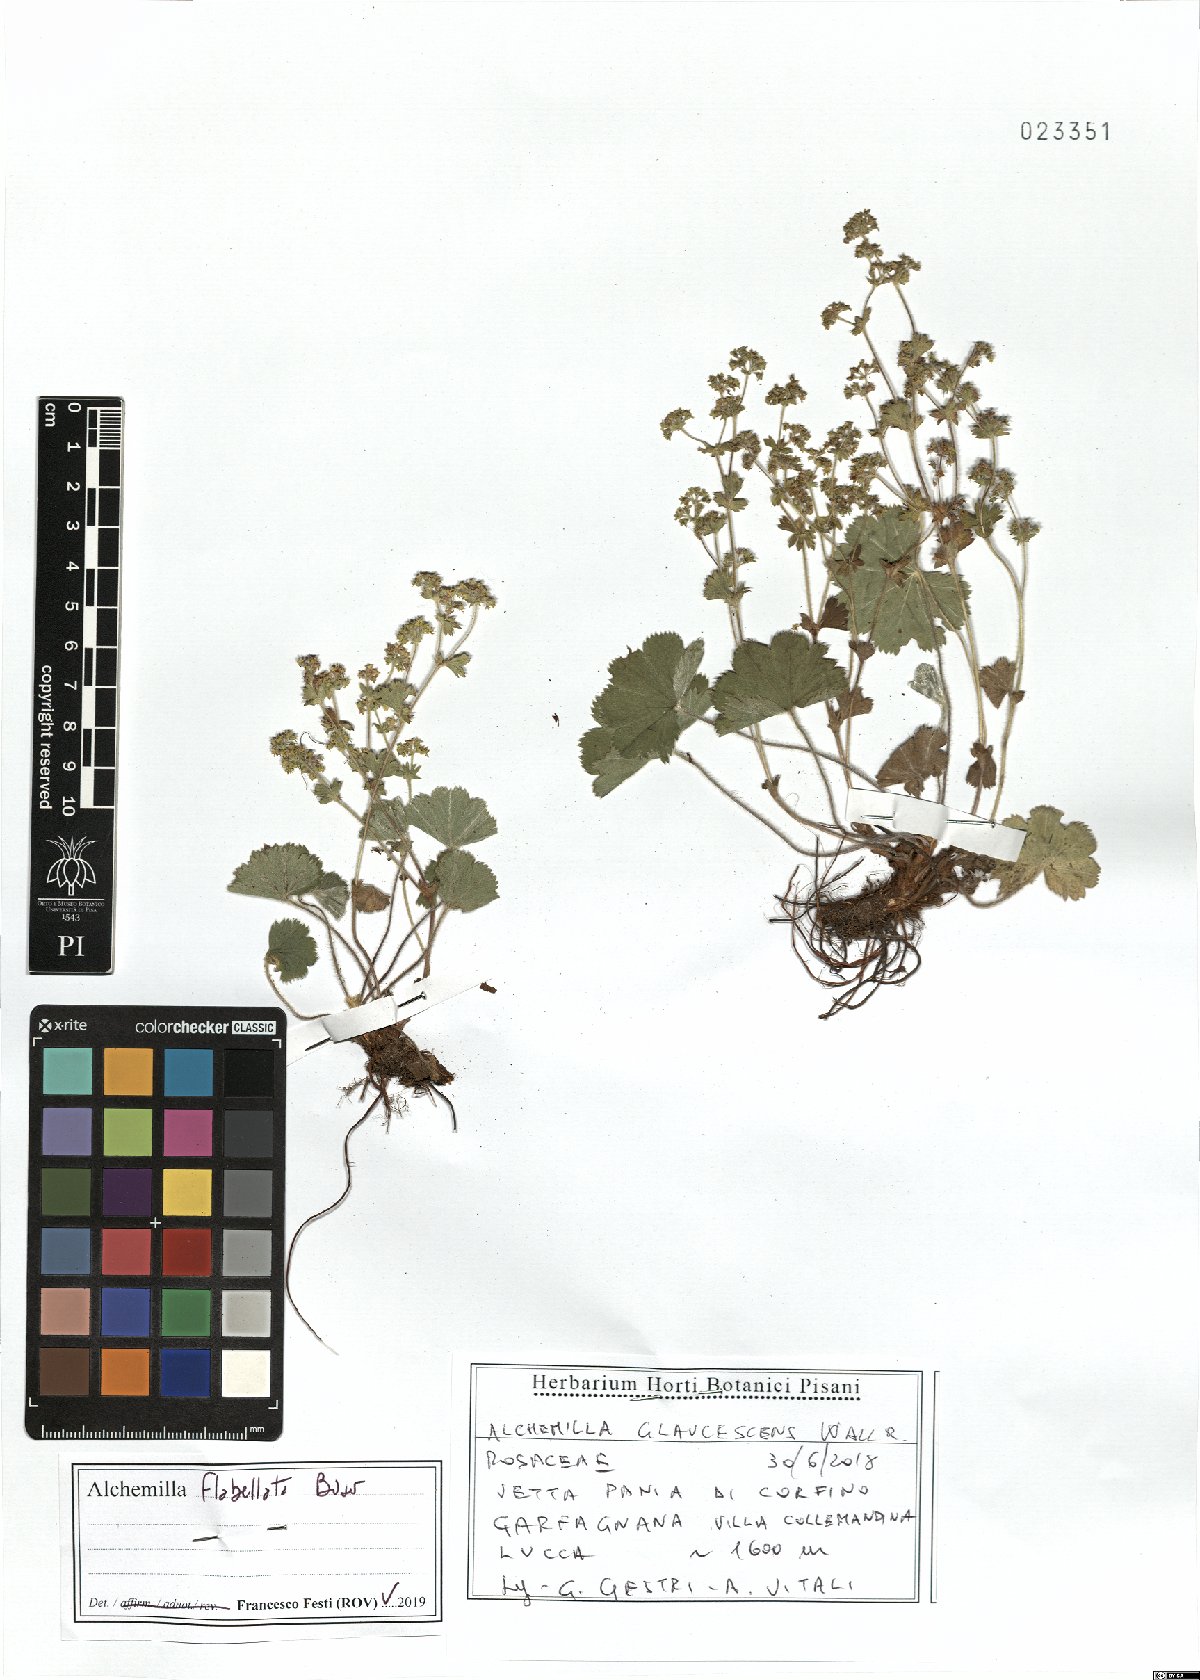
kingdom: Plantae
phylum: Tracheophyta
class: Magnoliopsida
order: Rosales
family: Rosaceae
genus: Alchemilla
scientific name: Alchemilla flabellata
